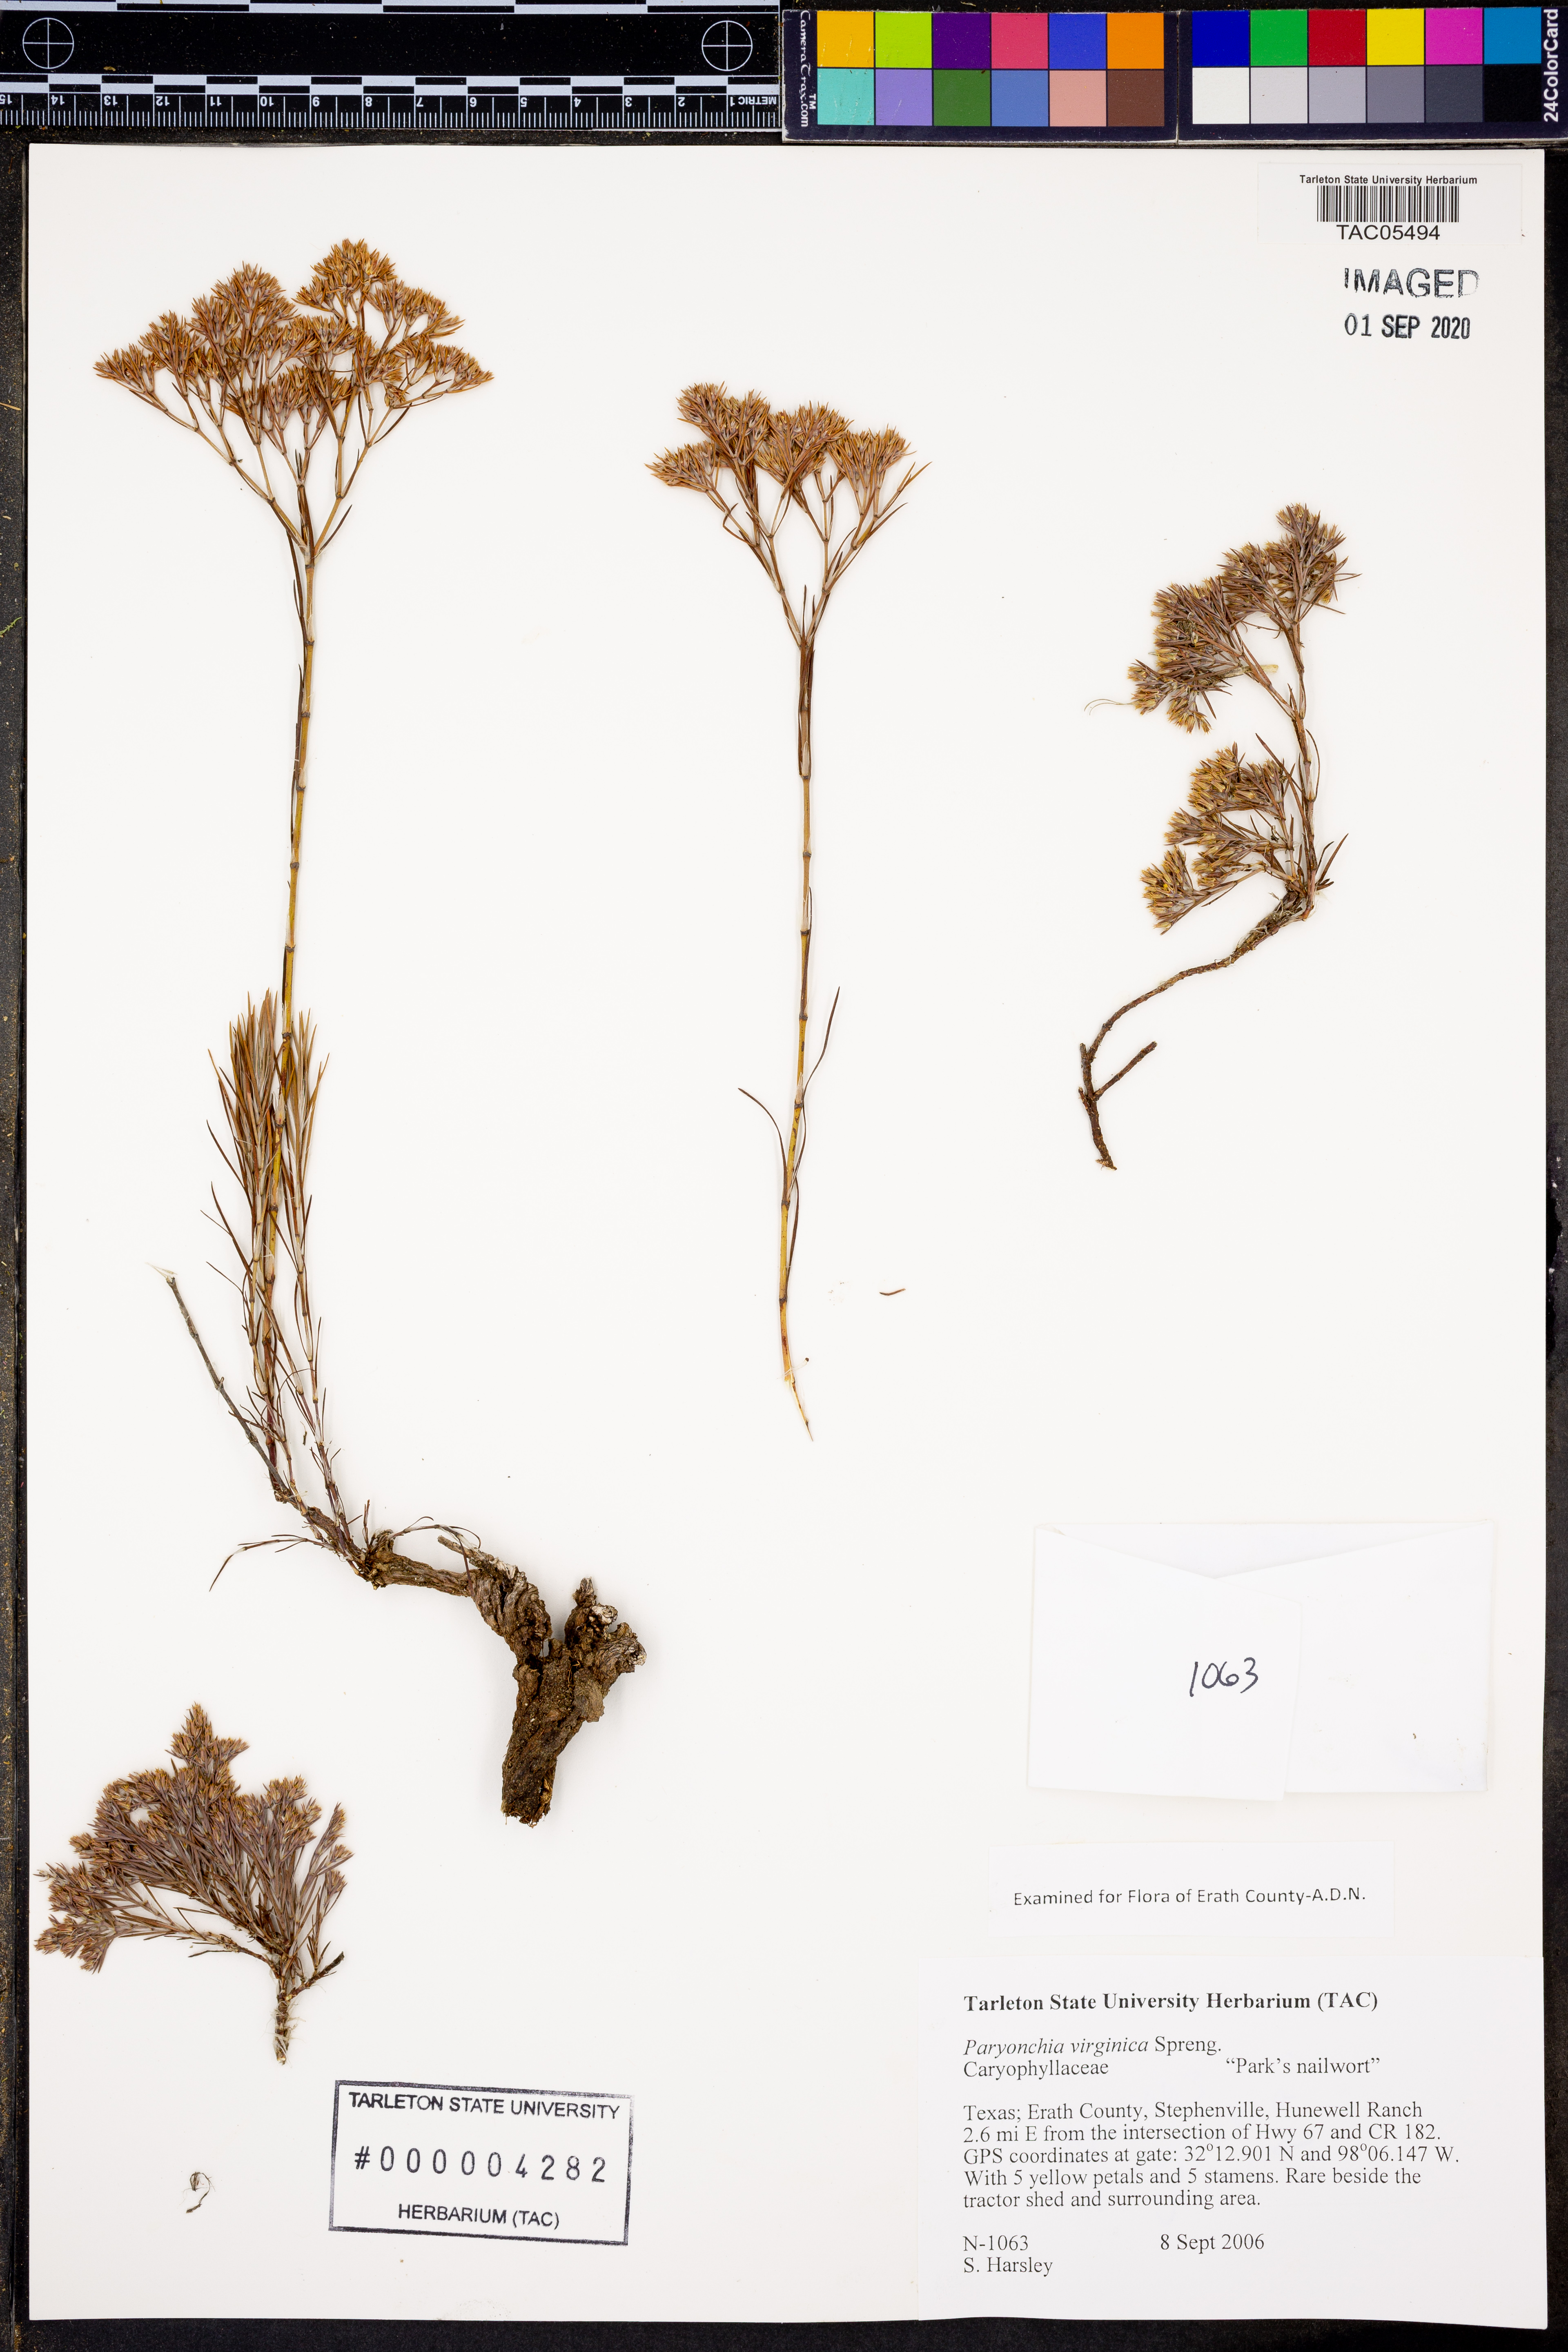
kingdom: Plantae
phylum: Tracheophyta
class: Magnoliopsida
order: Caryophyllales
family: Caryophyllaceae
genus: Paronychia
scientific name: Paronychia virginica
